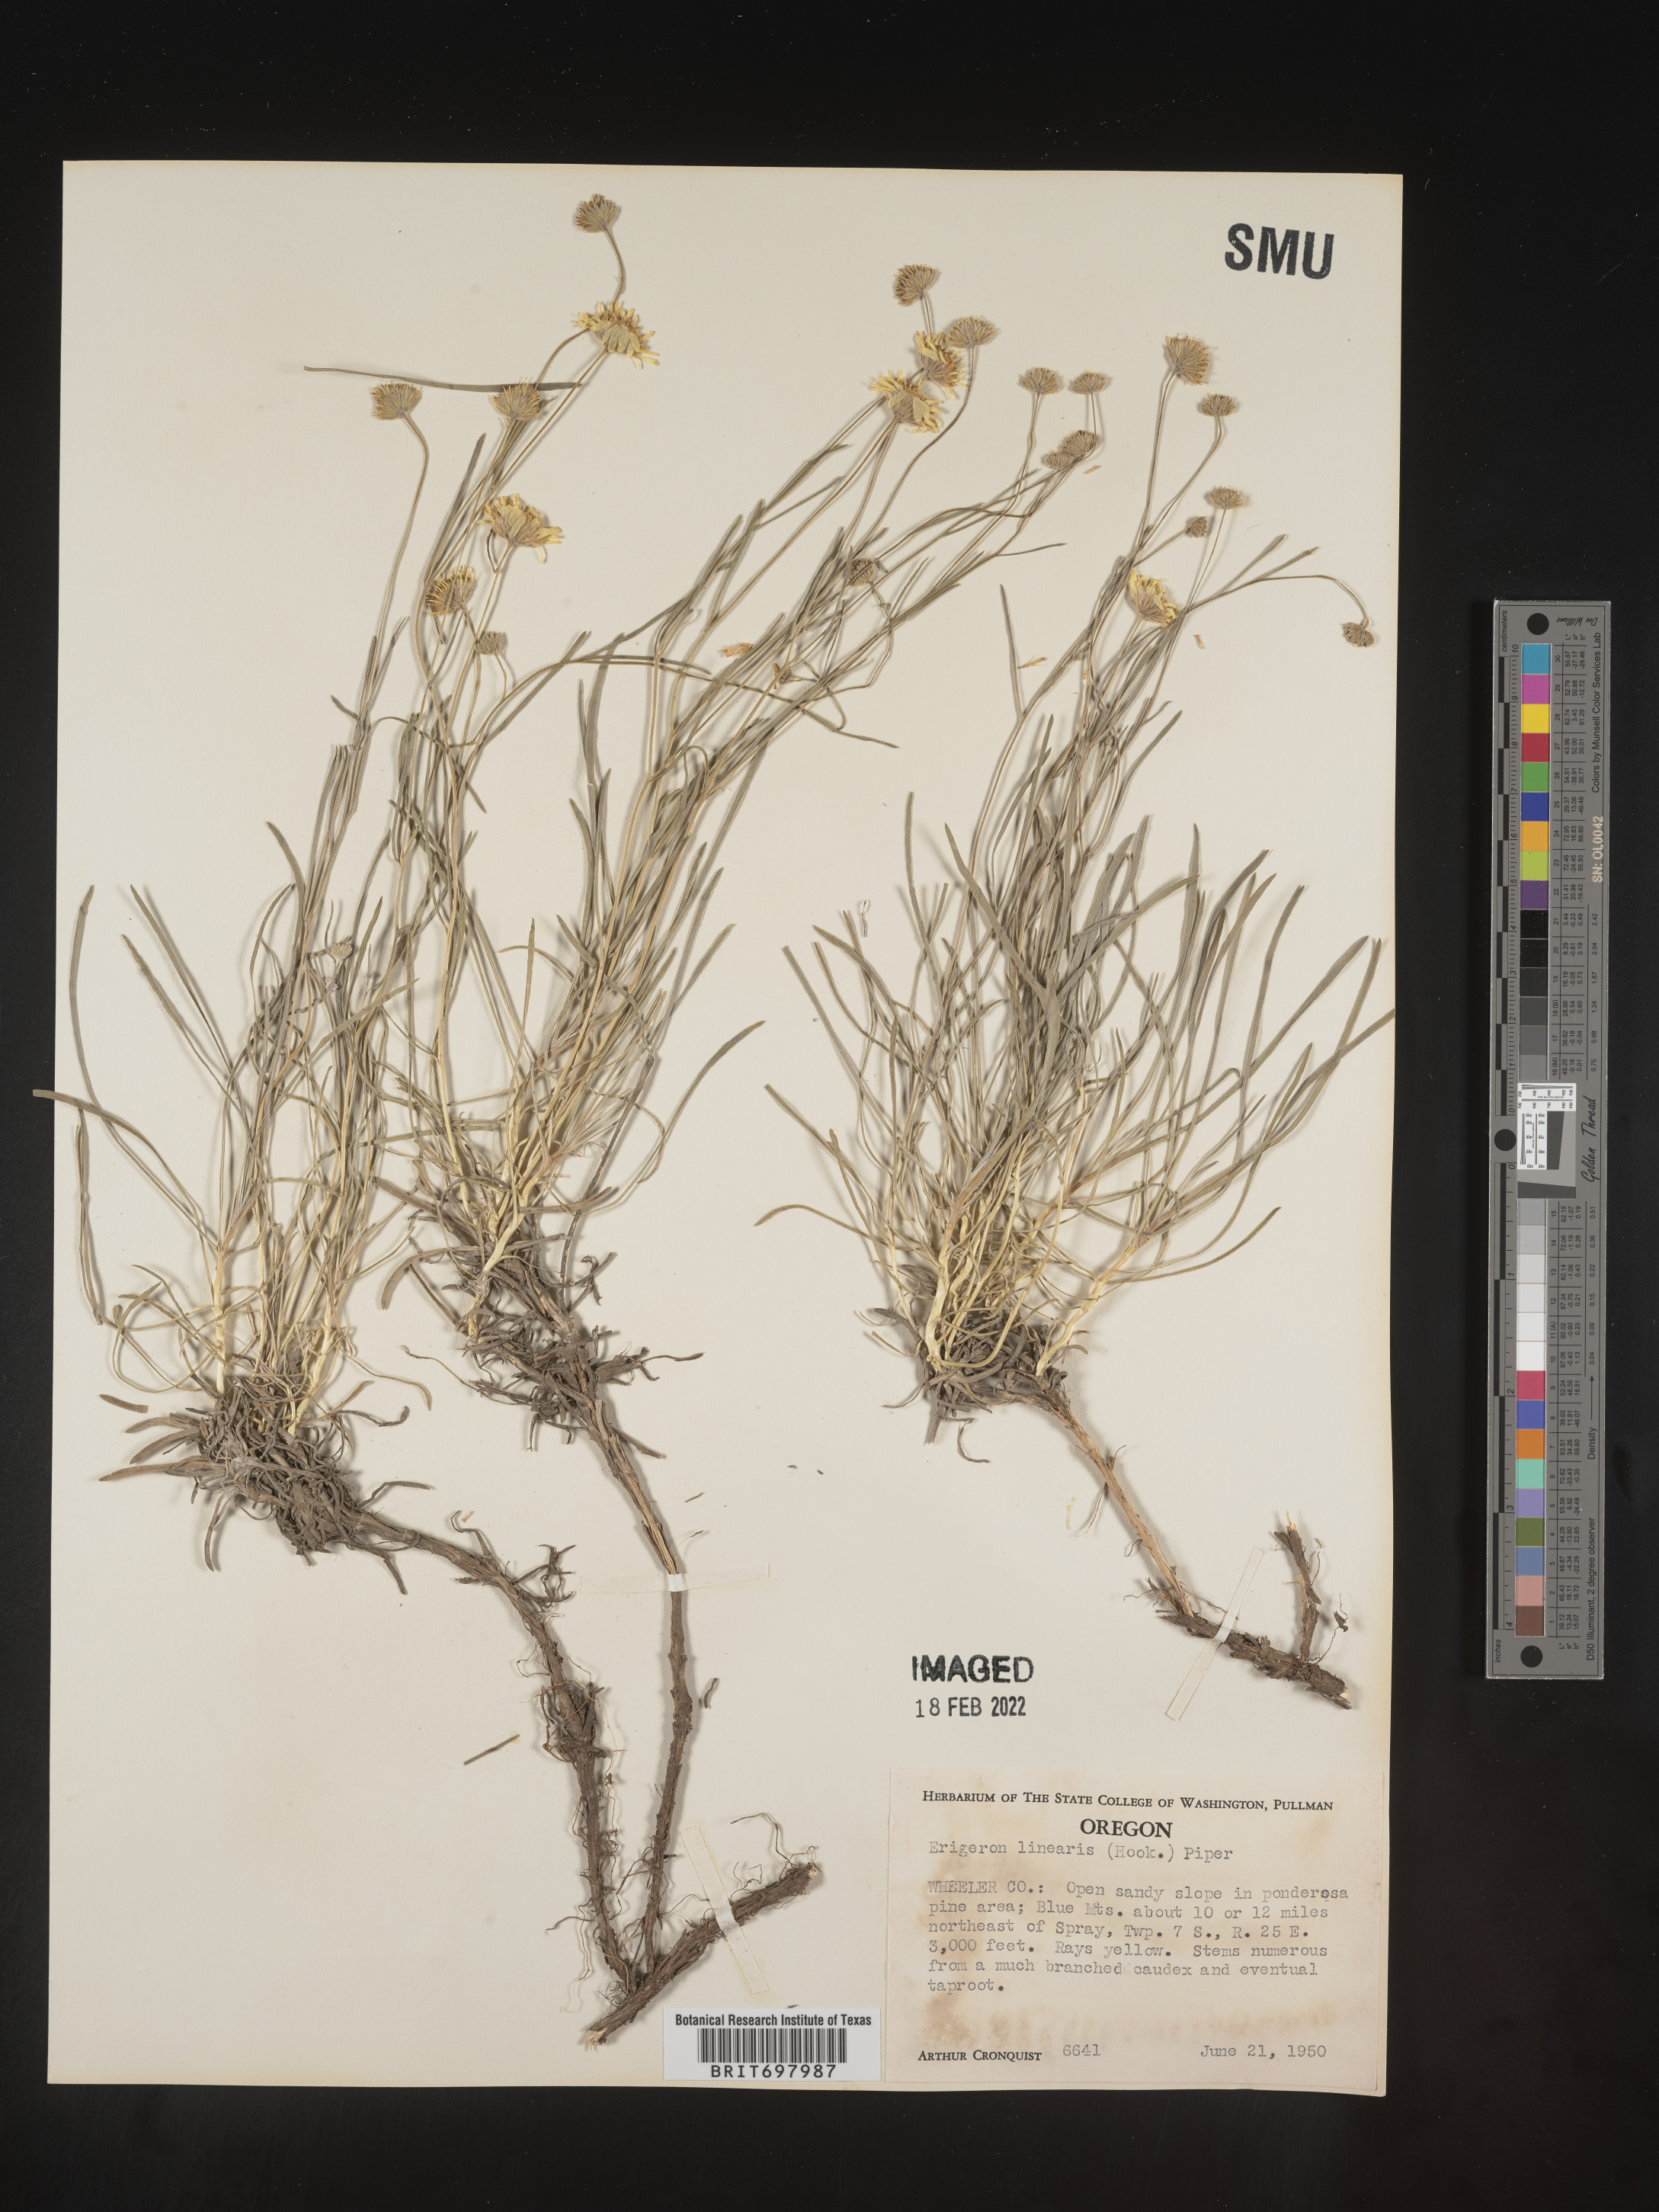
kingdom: Plantae
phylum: Tracheophyta
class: Magnoliopsida
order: Asterales
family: Asteraceae
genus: Erigeron
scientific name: Erigeron linearis
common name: Desert yellow fleabane
